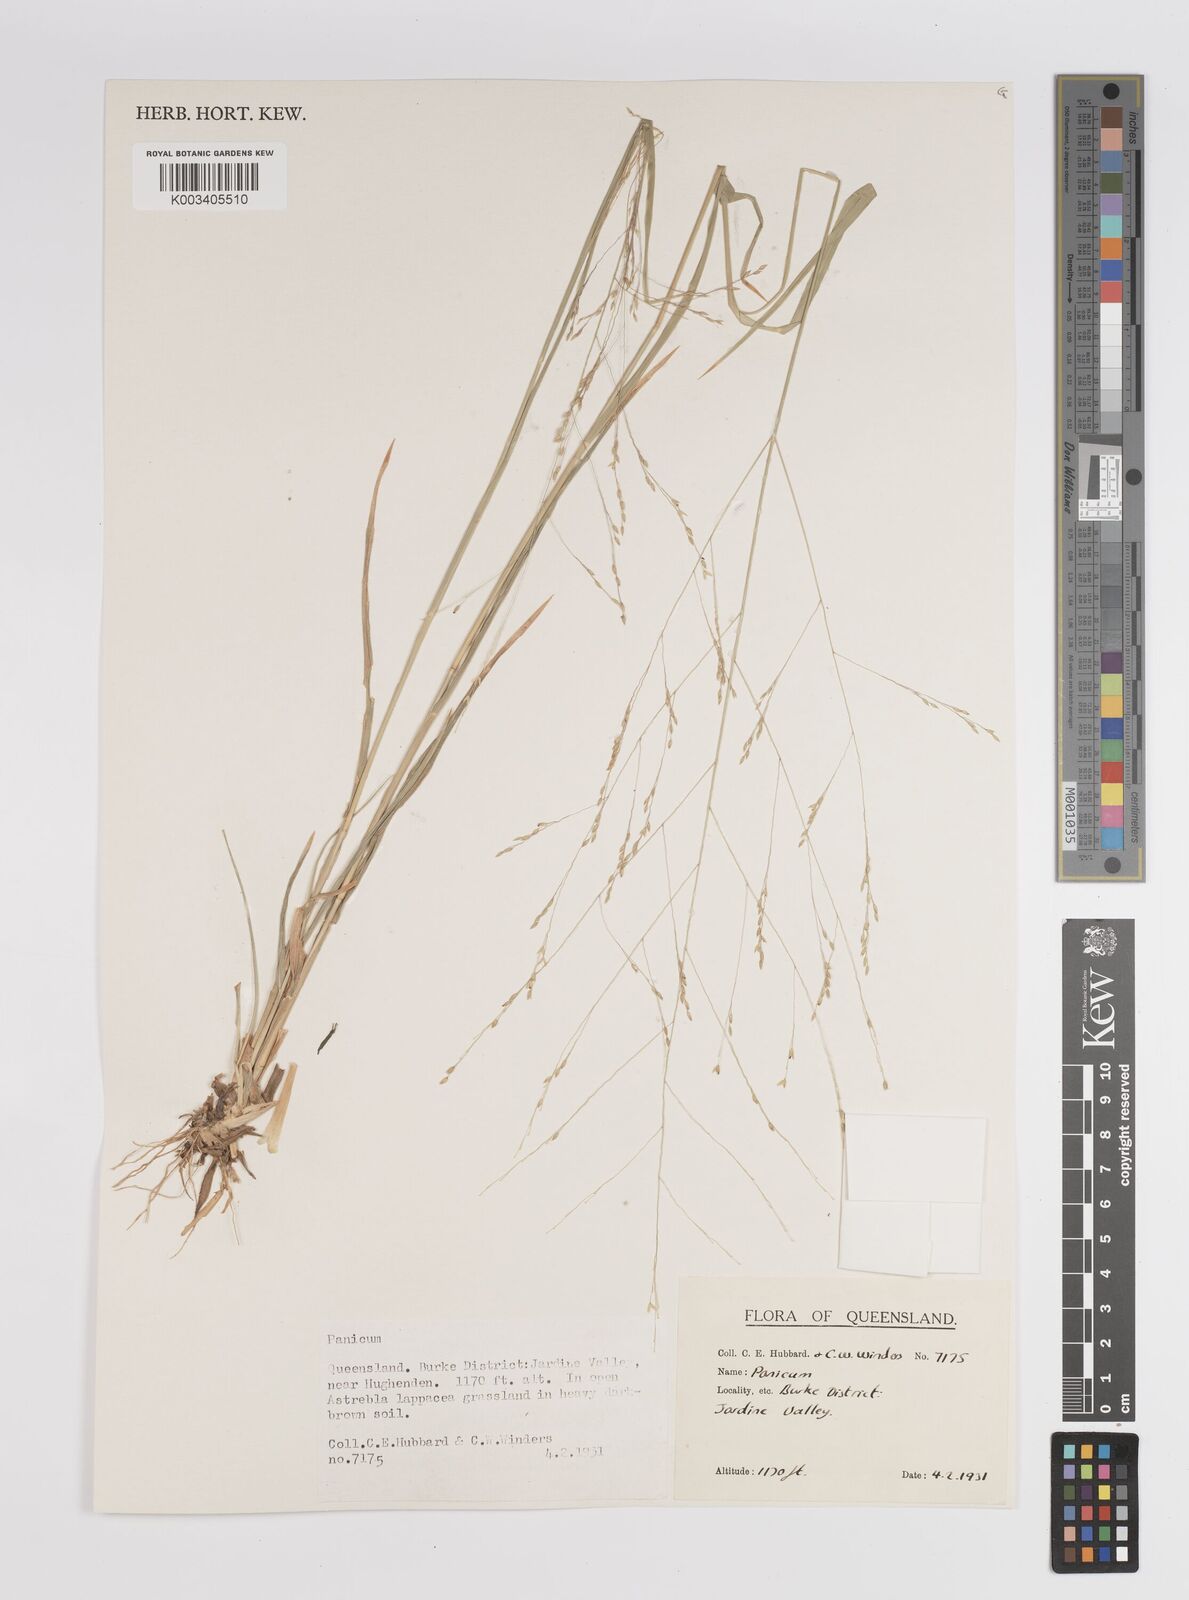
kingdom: Plantae
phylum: Tracheophyta
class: Liliopsida
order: Poales
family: Poaceae
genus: Panicum
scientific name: Panicum
